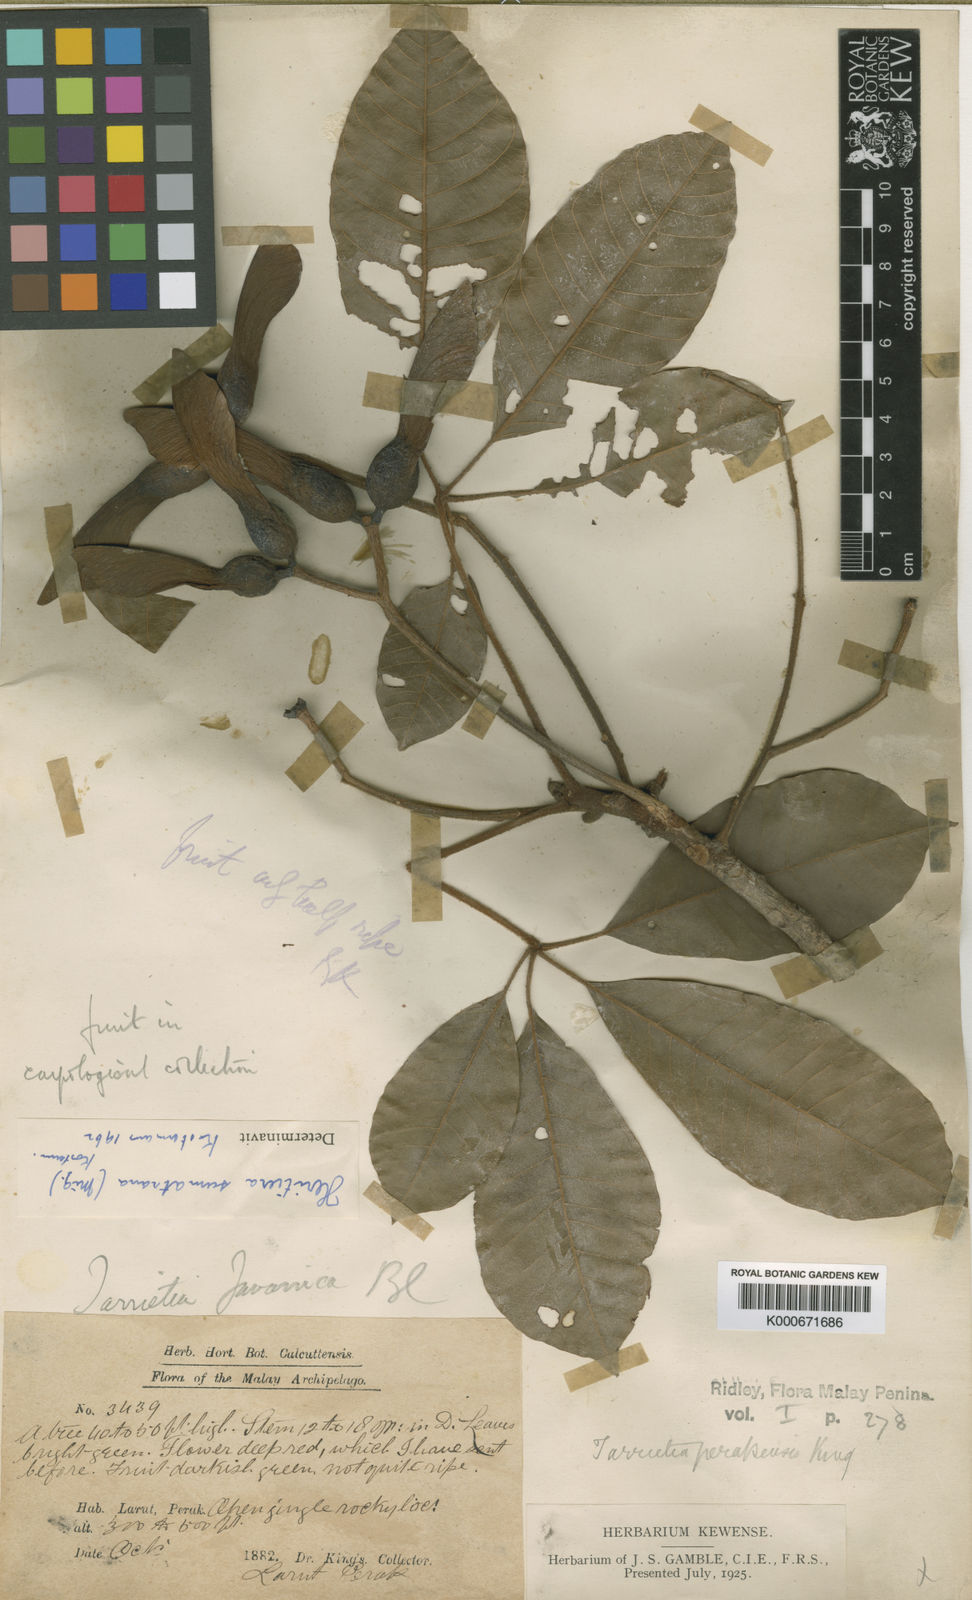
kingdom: Plantae
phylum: Tracheophyta
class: Magnoliopsida
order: Malvales
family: Malvaceae
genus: Heritiera
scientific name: Heritiera sumatrana
